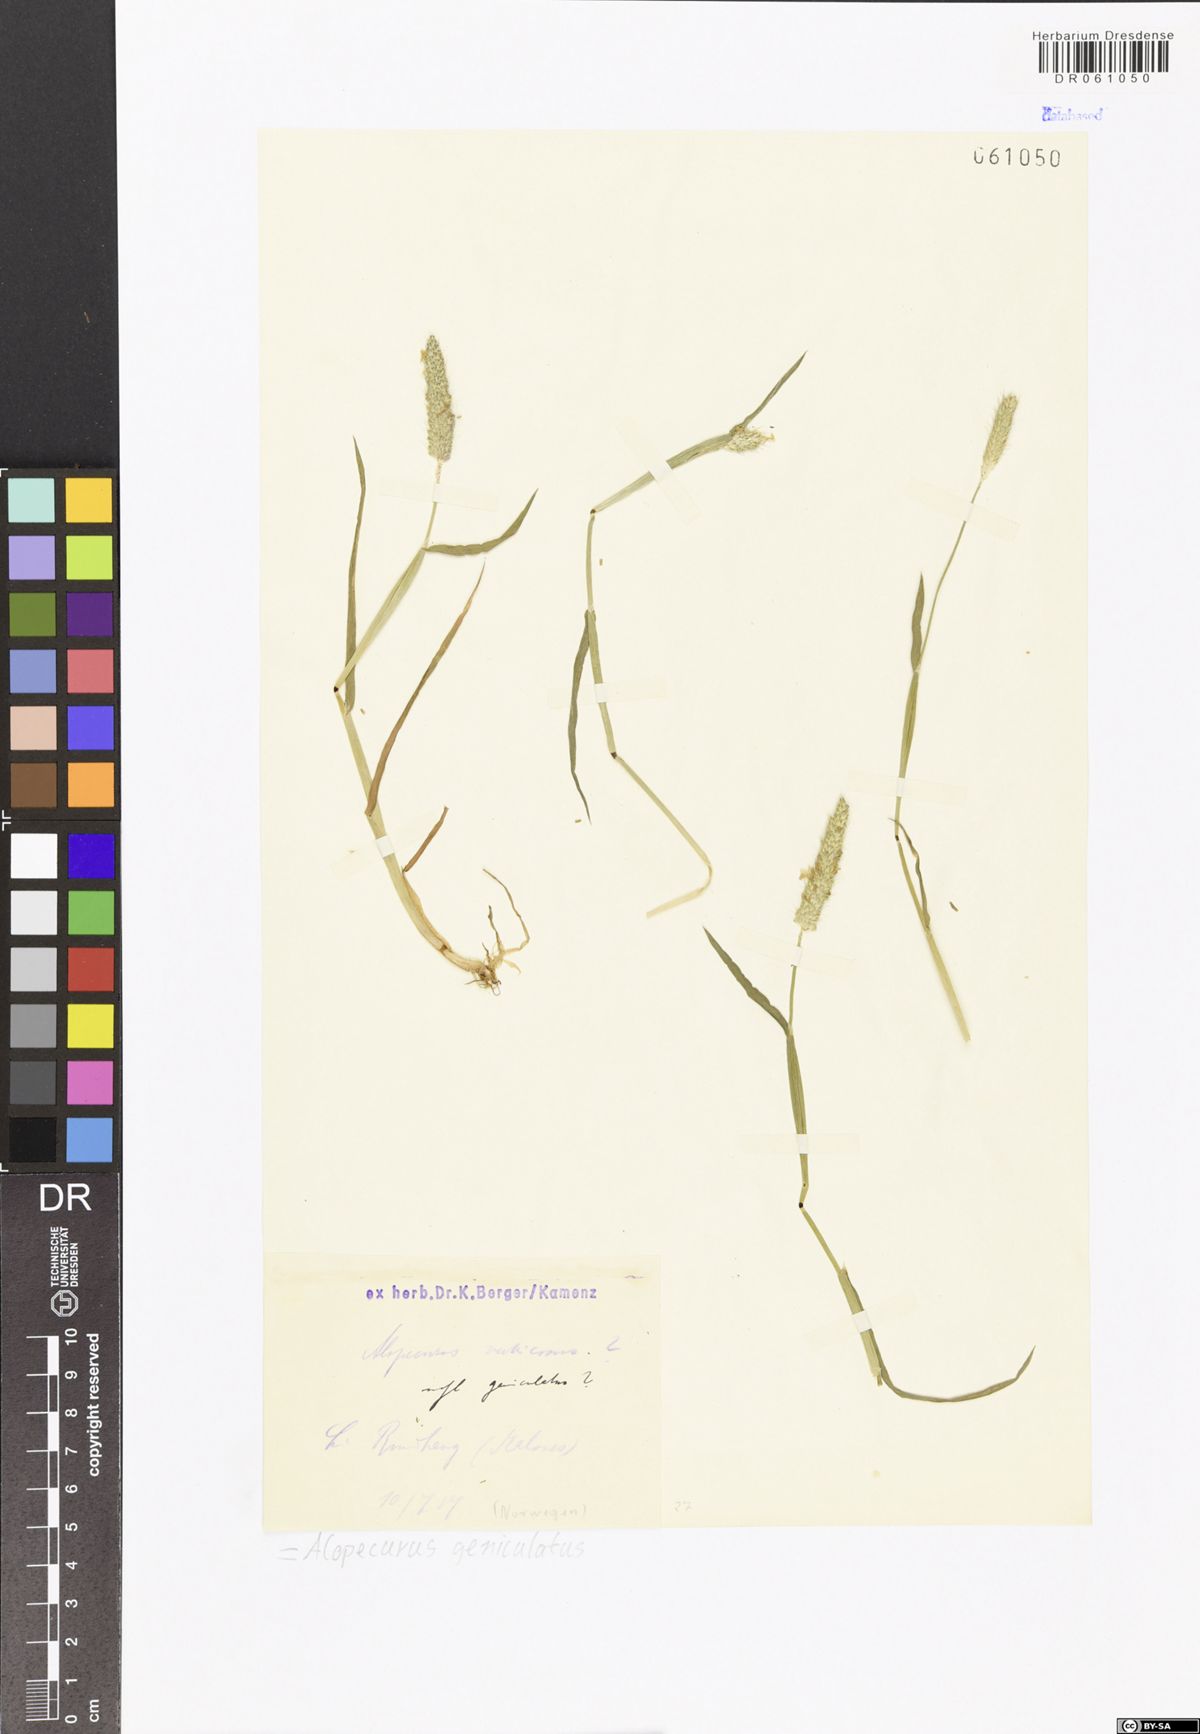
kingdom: Plantae
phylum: Tracheophyta
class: Liliopsida
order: Poales
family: Poaceae
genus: Alopecurus
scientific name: Alopecurus geniculatus
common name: Water foxtail
